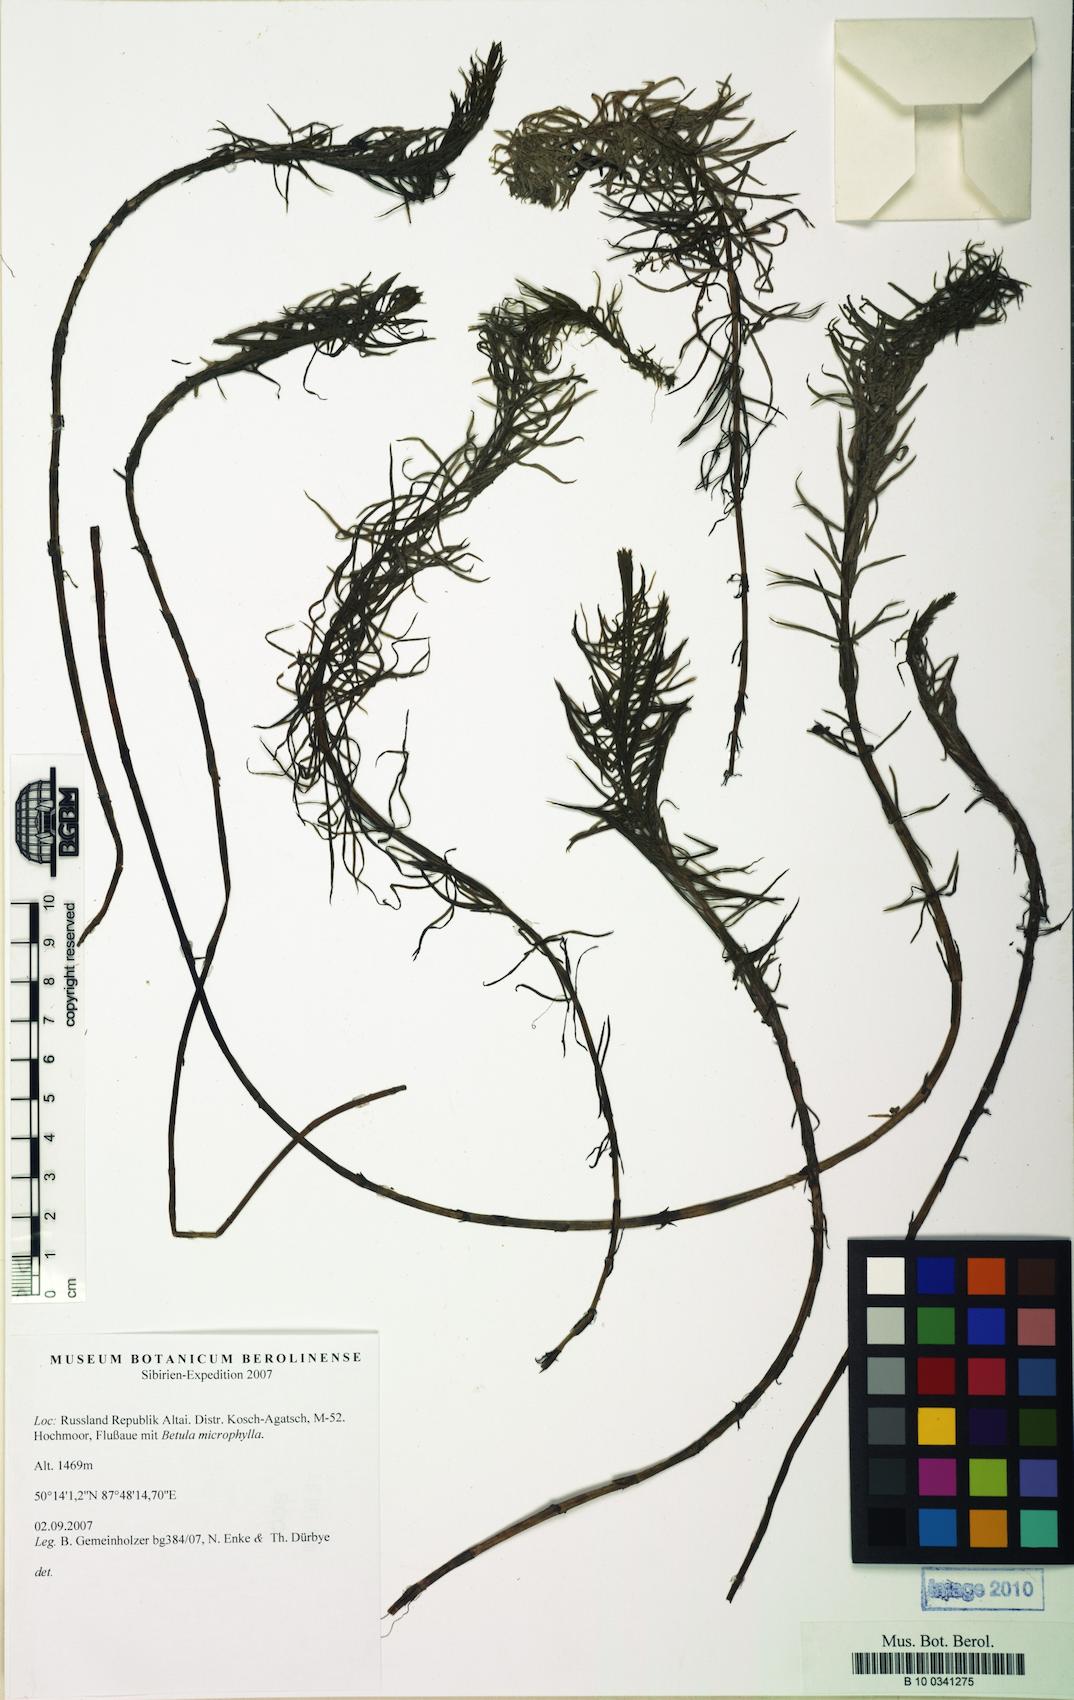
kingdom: Plantae
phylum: Tracheophyta
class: Magnoliopsida
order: Lamiales
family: Plantaginaceae
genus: Hippuris
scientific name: Hippuris vulgaris
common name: Mare's-tail
